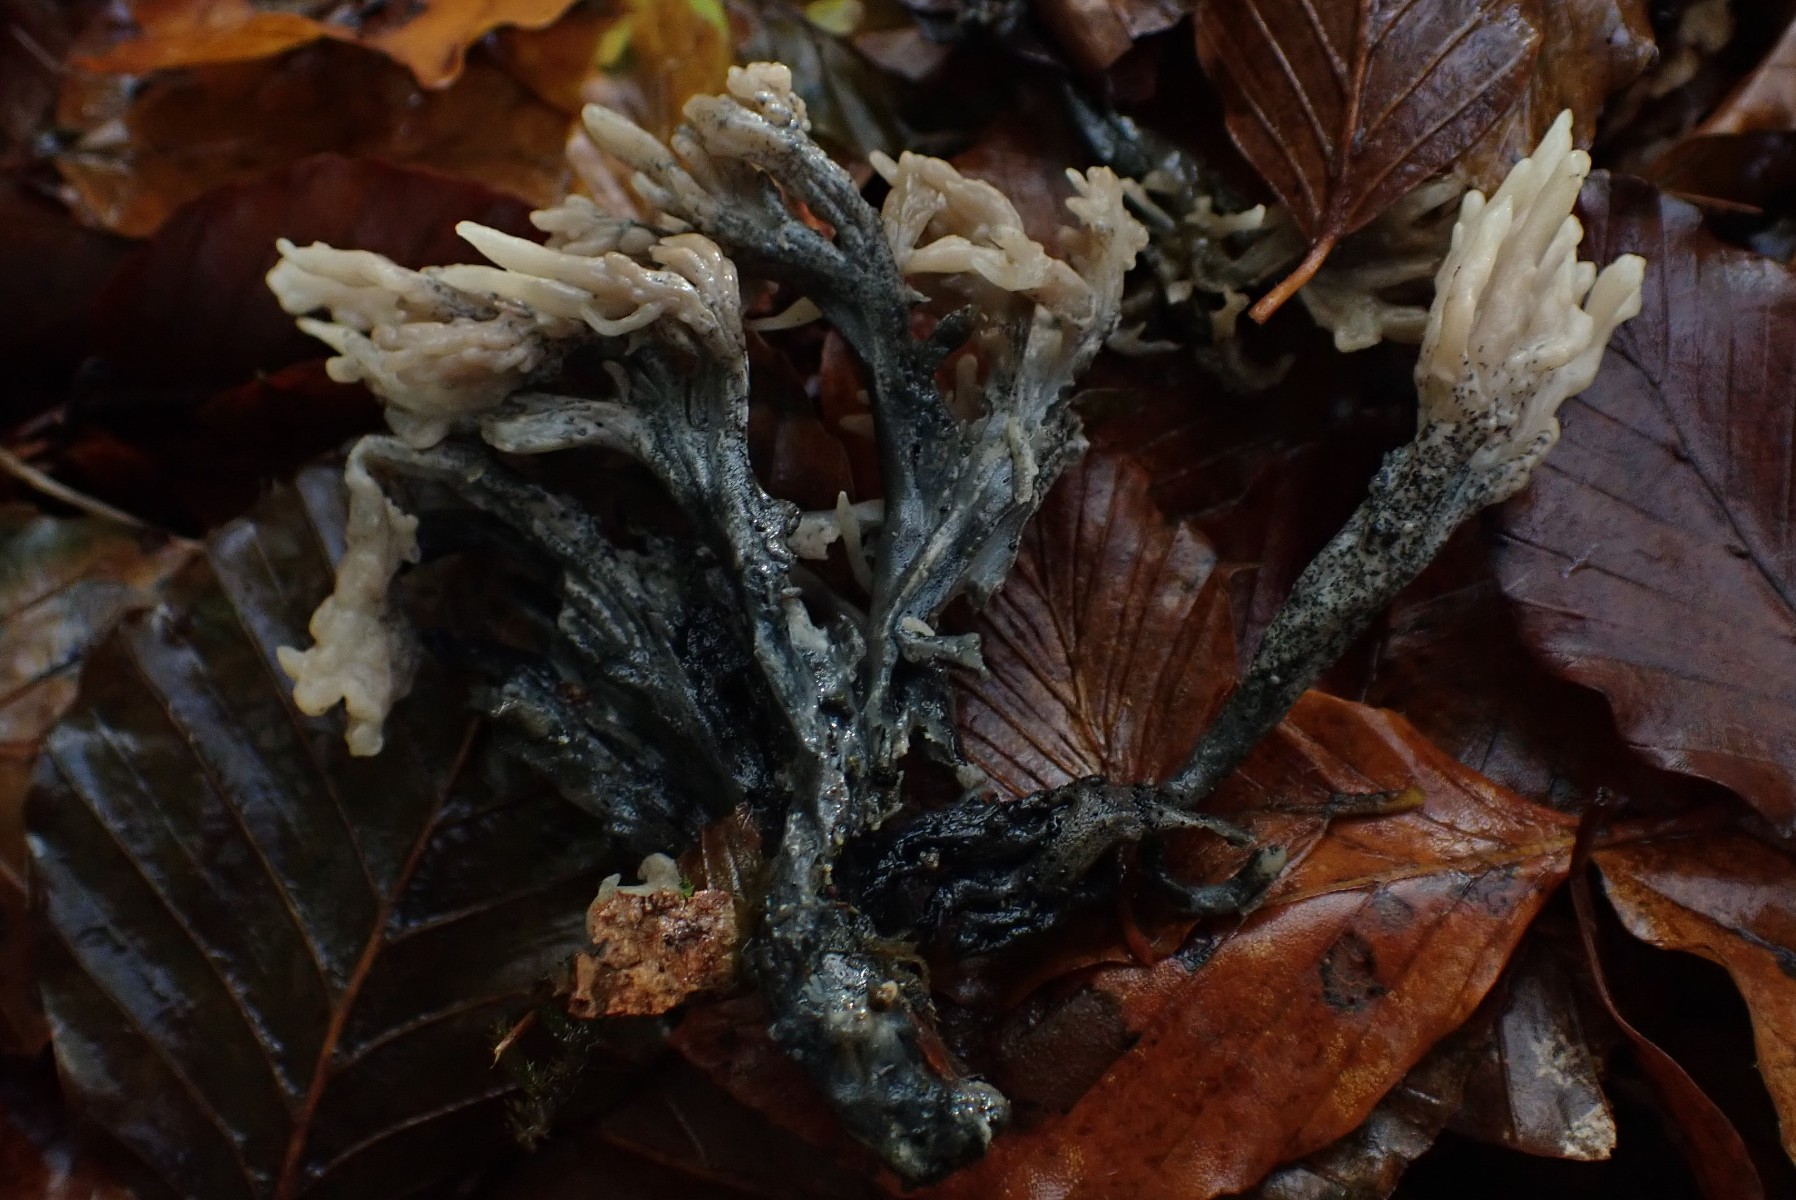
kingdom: Fungi
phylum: Ascomycota
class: Sordariomycetes
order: Sordariales
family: Helminthosphaeriaceae
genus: Helminthosphaeria
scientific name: Helminthosphaeria clavariarum
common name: trold-svampesnyltekerne
